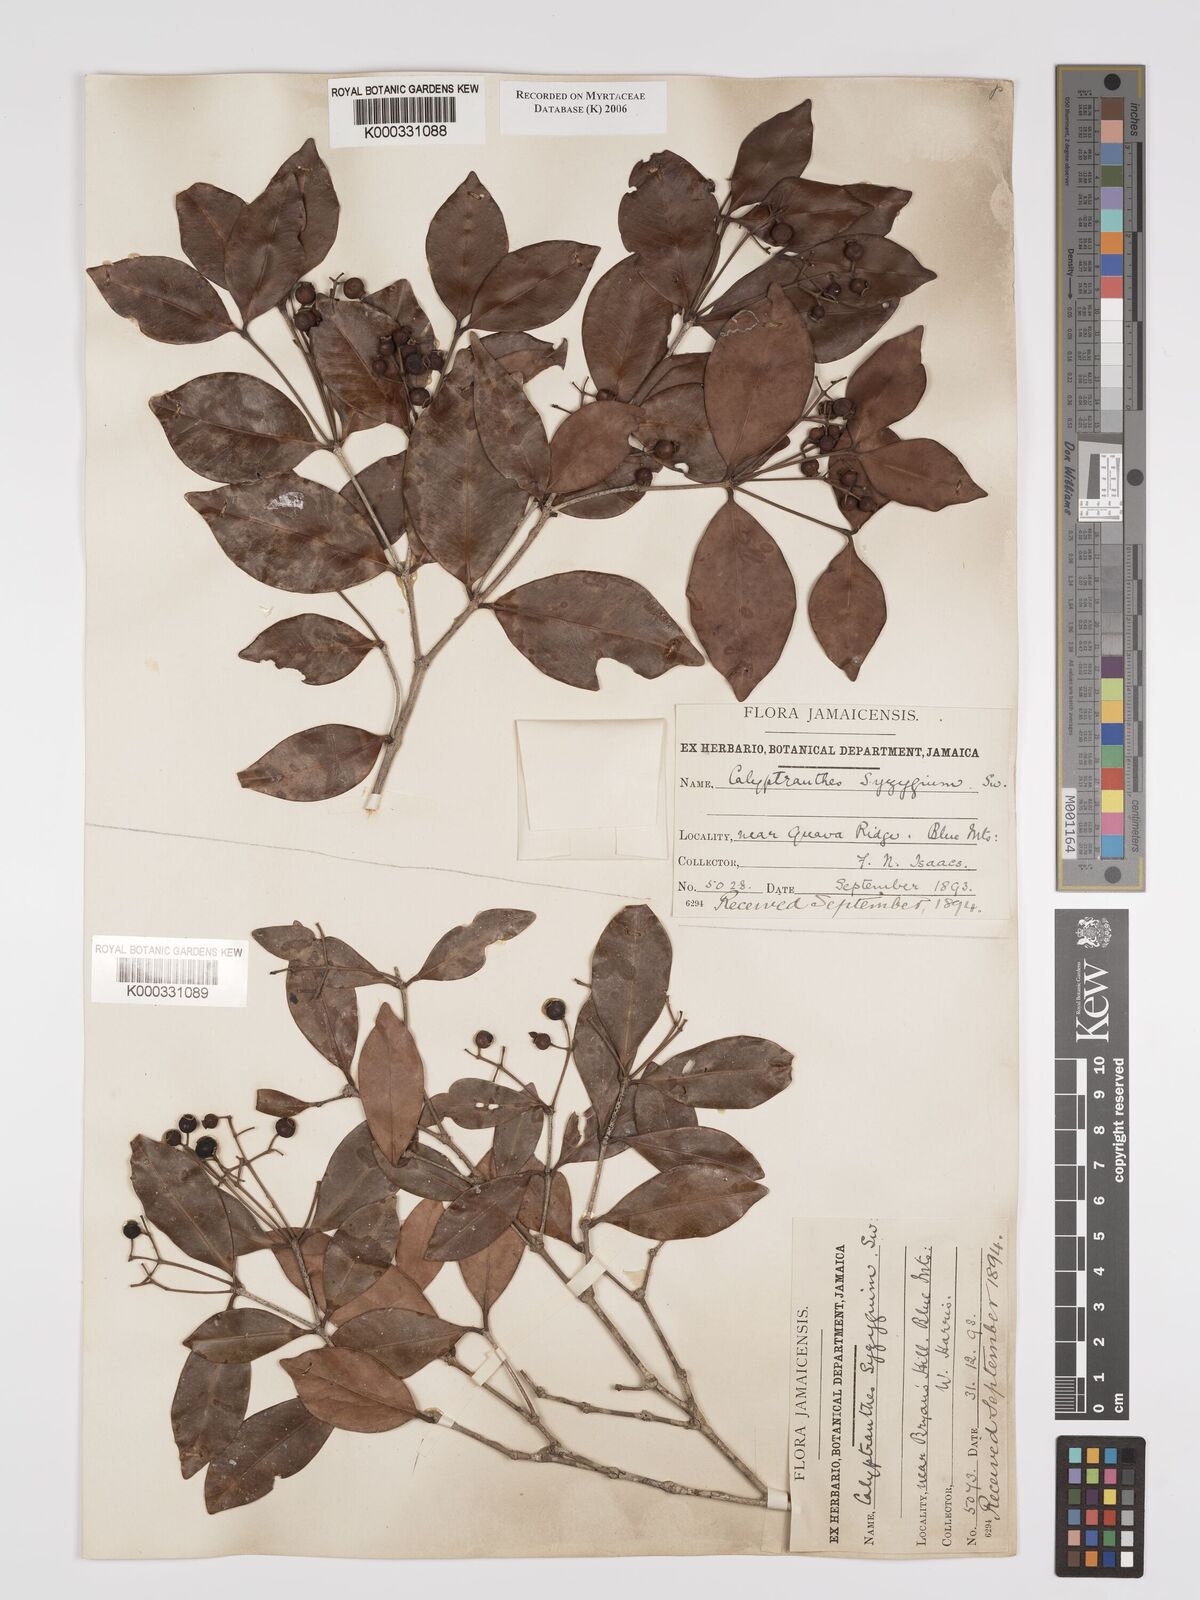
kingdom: Plantae
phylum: Tracheophyta
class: Magnoliopsida
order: Myrtales
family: Myrtaceae
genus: Myrcia
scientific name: Myrcia chytraculia
